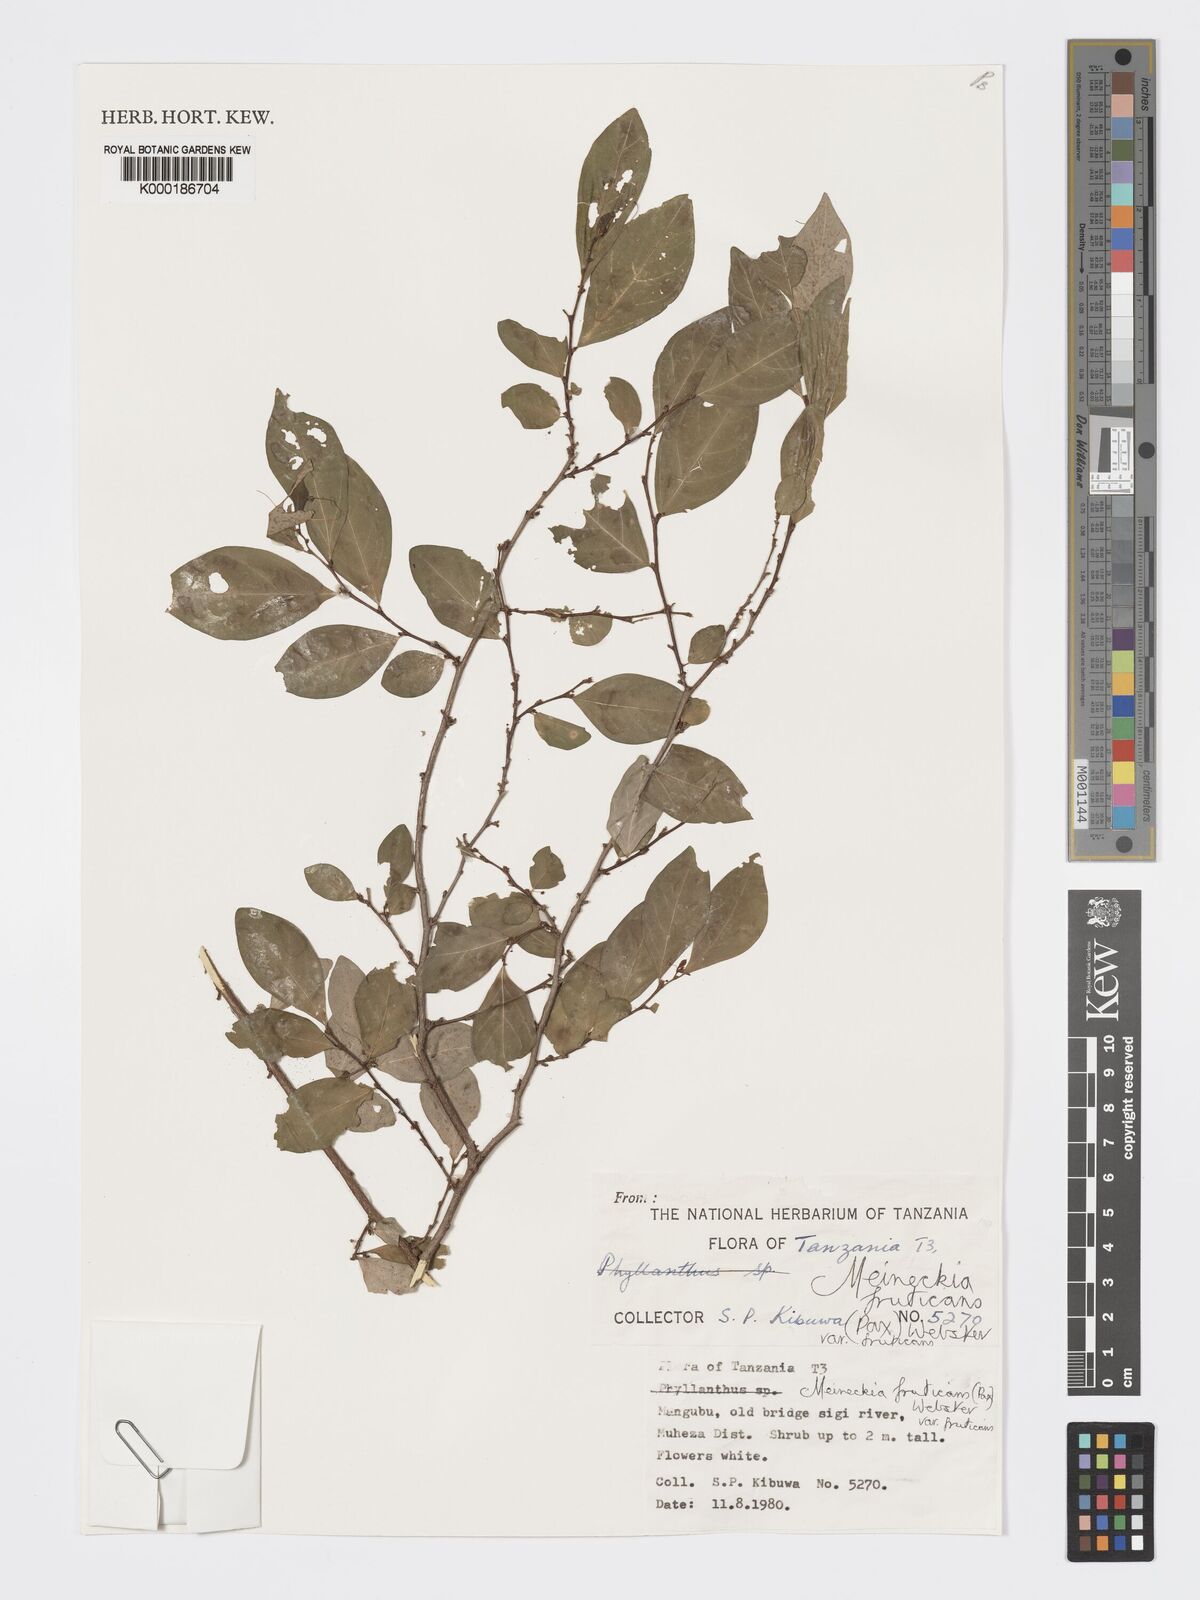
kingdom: Plantae
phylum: Tracheophyta
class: Magnoliopsida
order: Malpighiales
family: Phyllanthaceae
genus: Meineckia
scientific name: Meineckia fruticans
